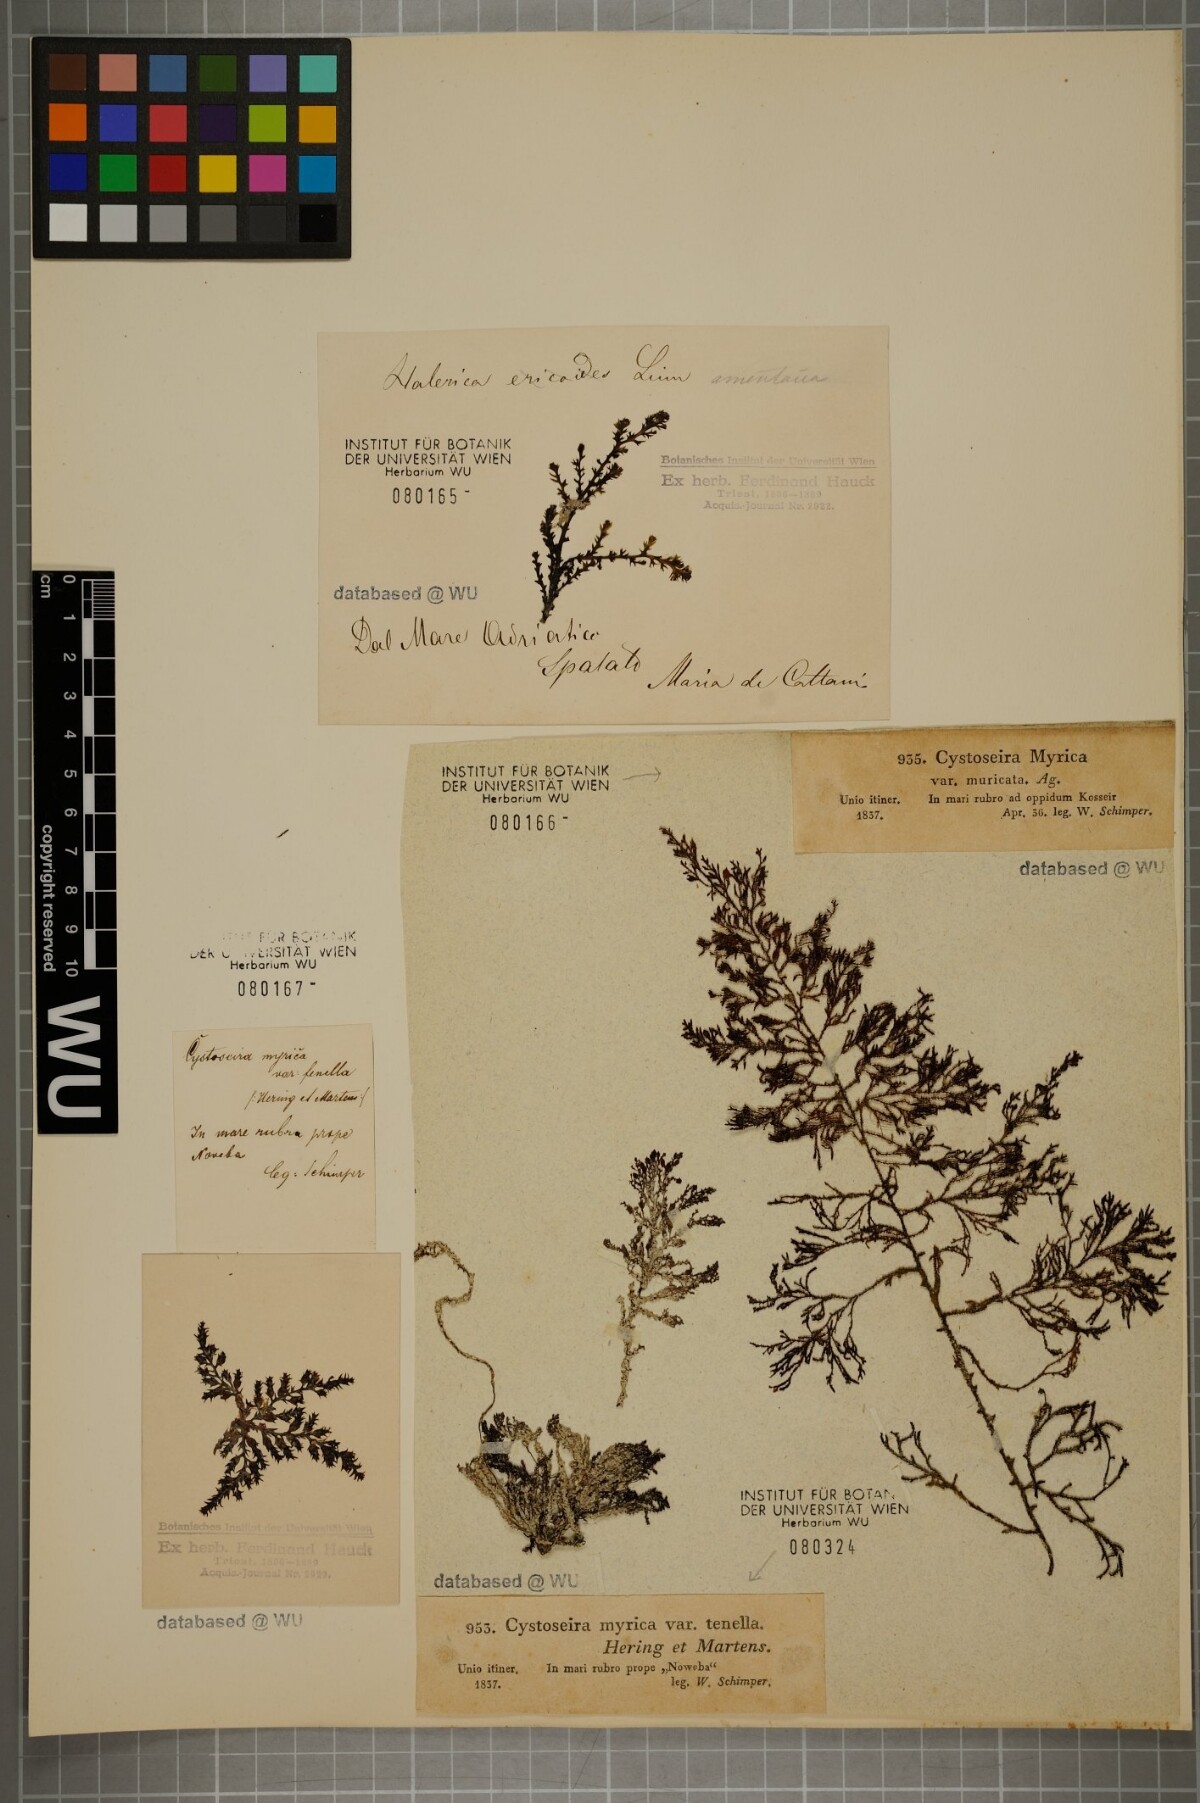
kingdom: Chromista
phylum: Ochrophyta
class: Phaeophyceae
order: Fucales
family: Sargassaceae
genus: Polycladia
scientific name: Polycladia myrica
